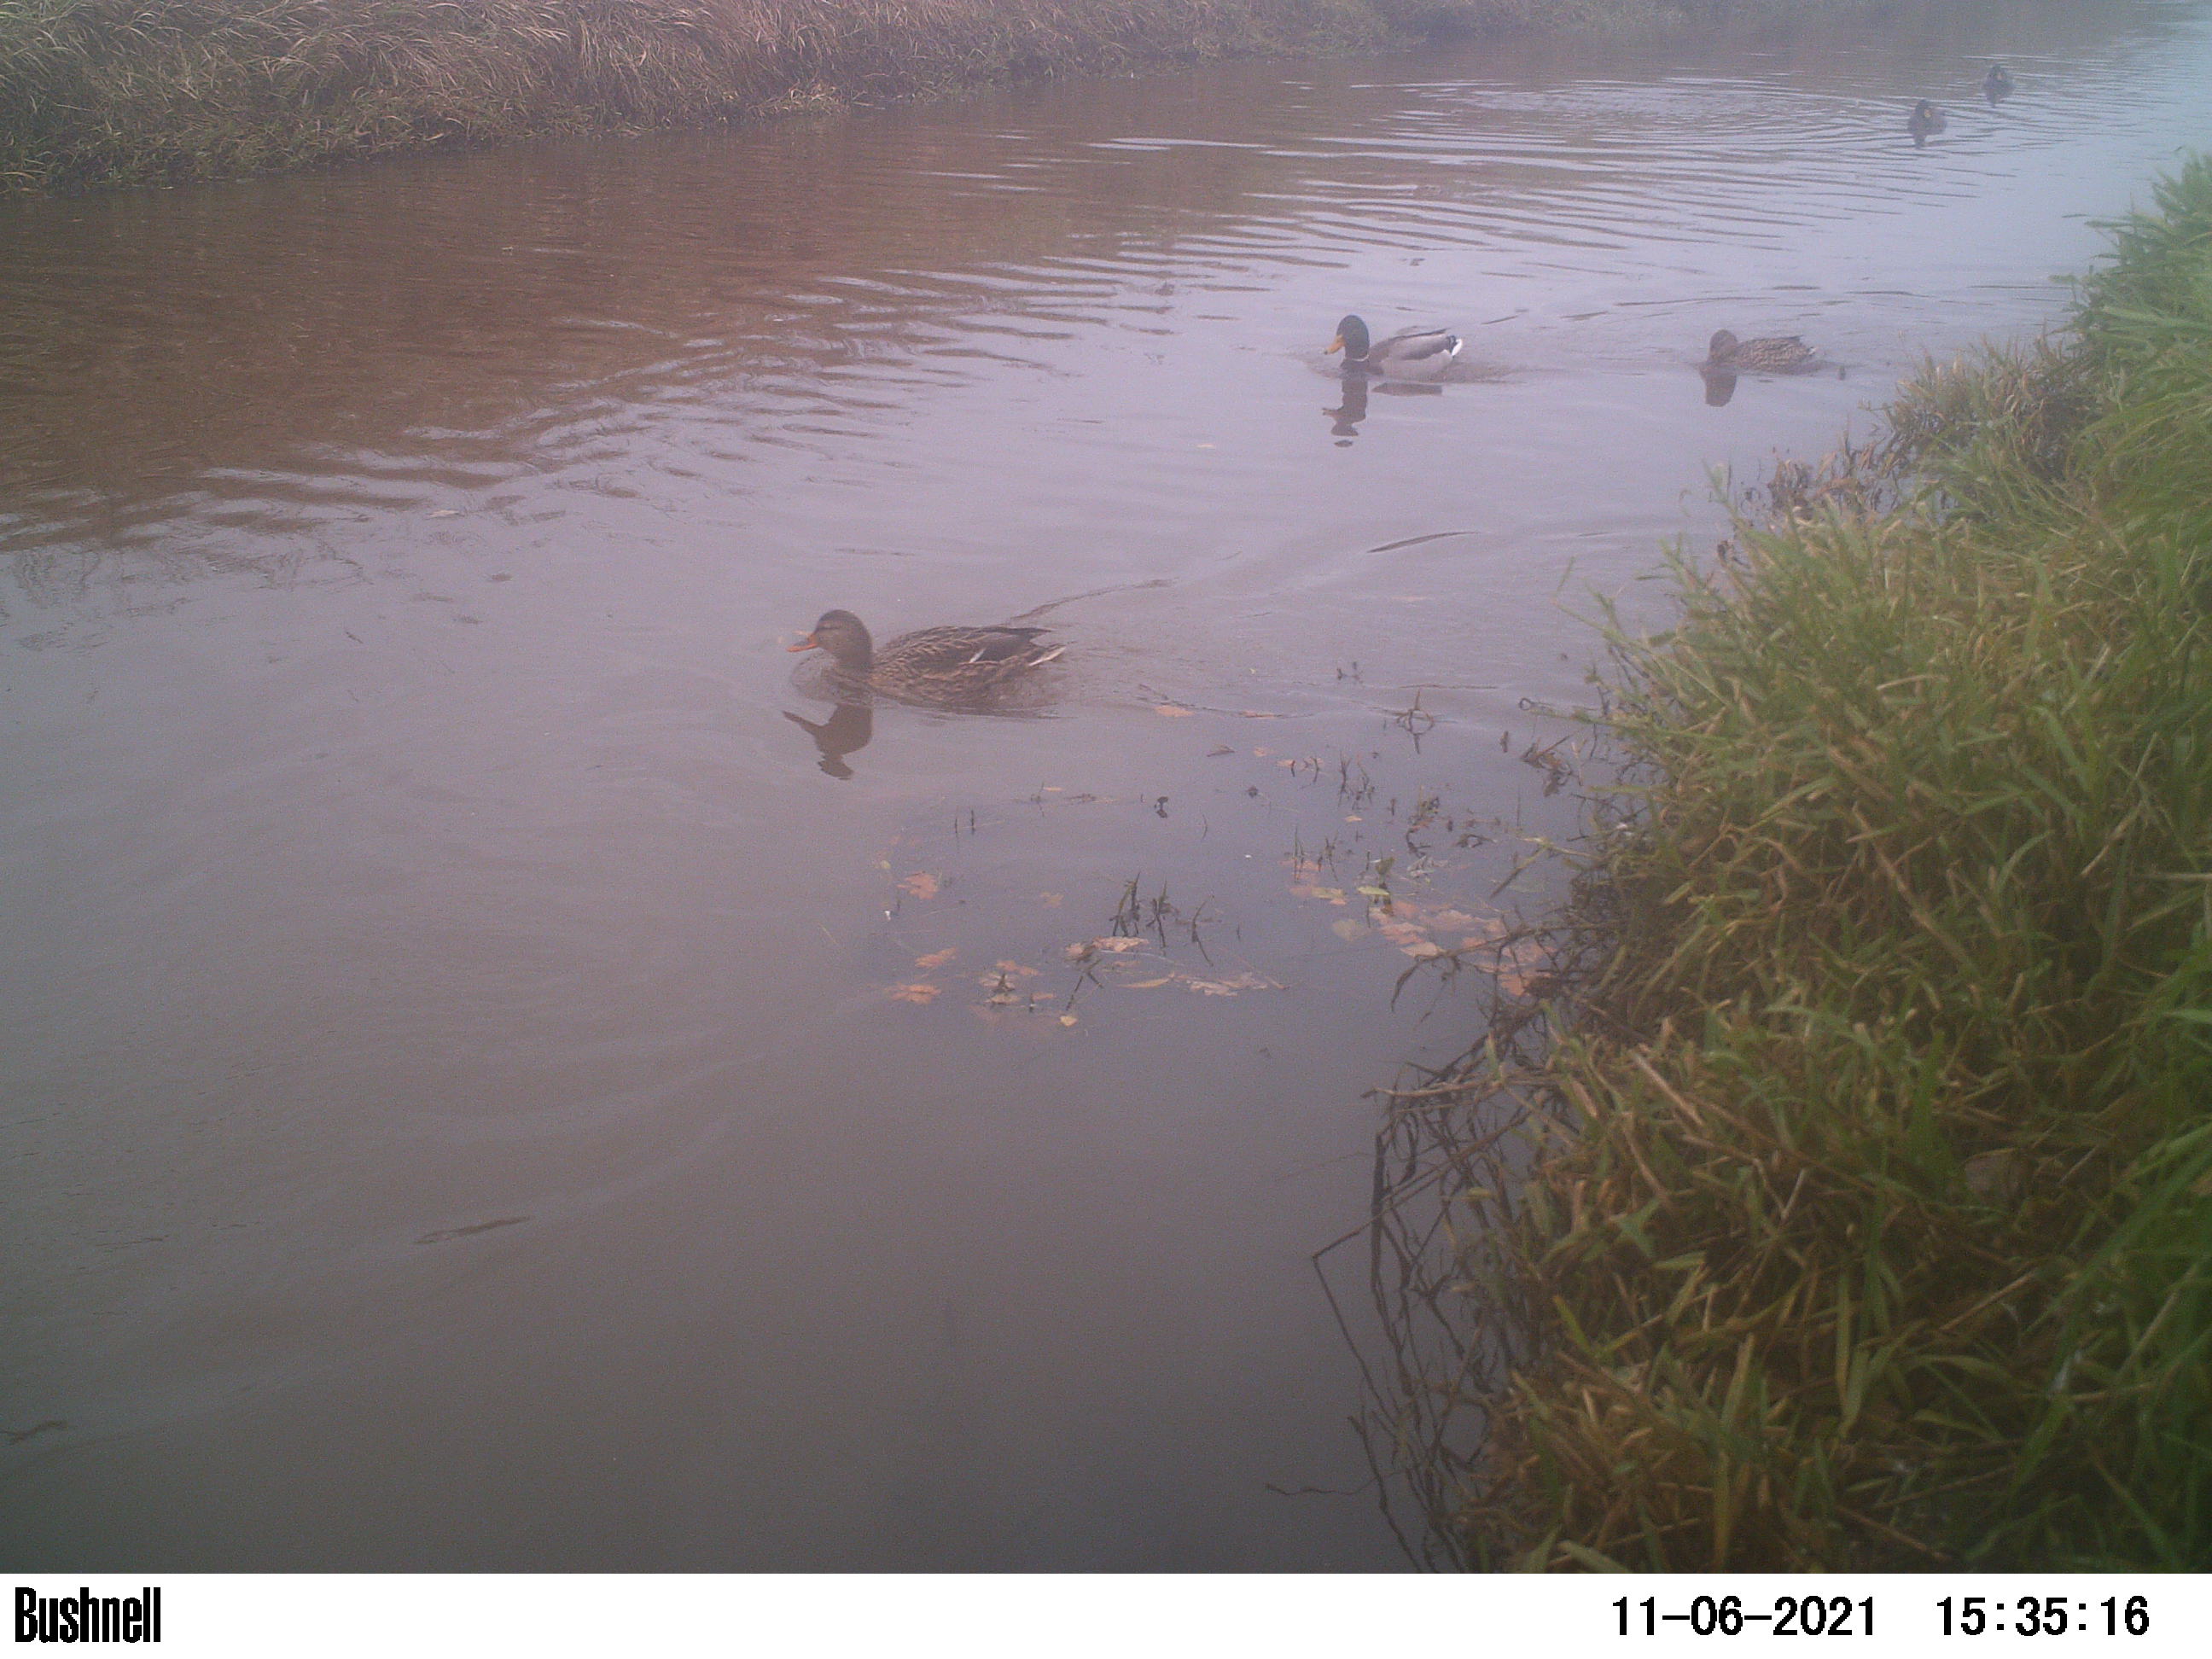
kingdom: Animalia
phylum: Chordata
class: Aves
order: Anseriformes
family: Anatidae
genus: Anas
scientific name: Anas
